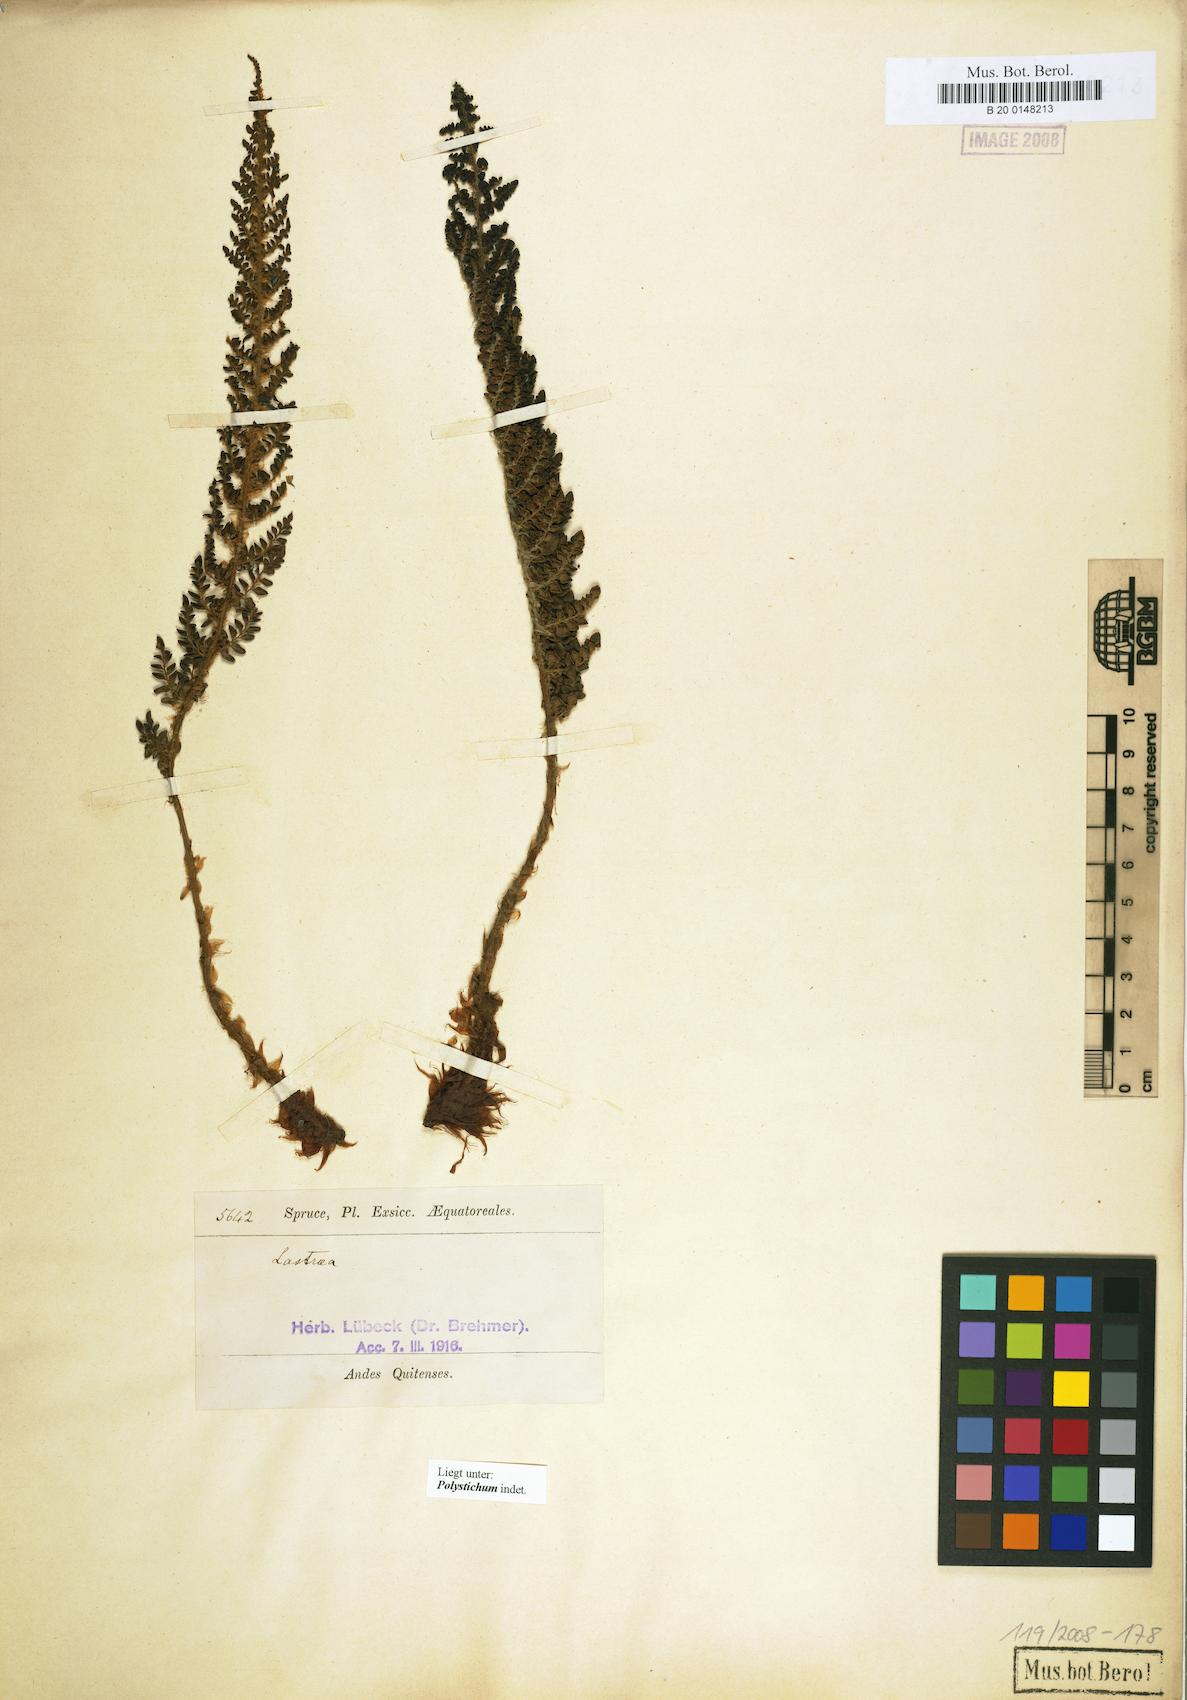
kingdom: Plantae
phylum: Tracheophyta
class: Polypodiopsida
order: Polypodiales
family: Dryopteridaceae
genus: Polystichum
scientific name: Polystichum
